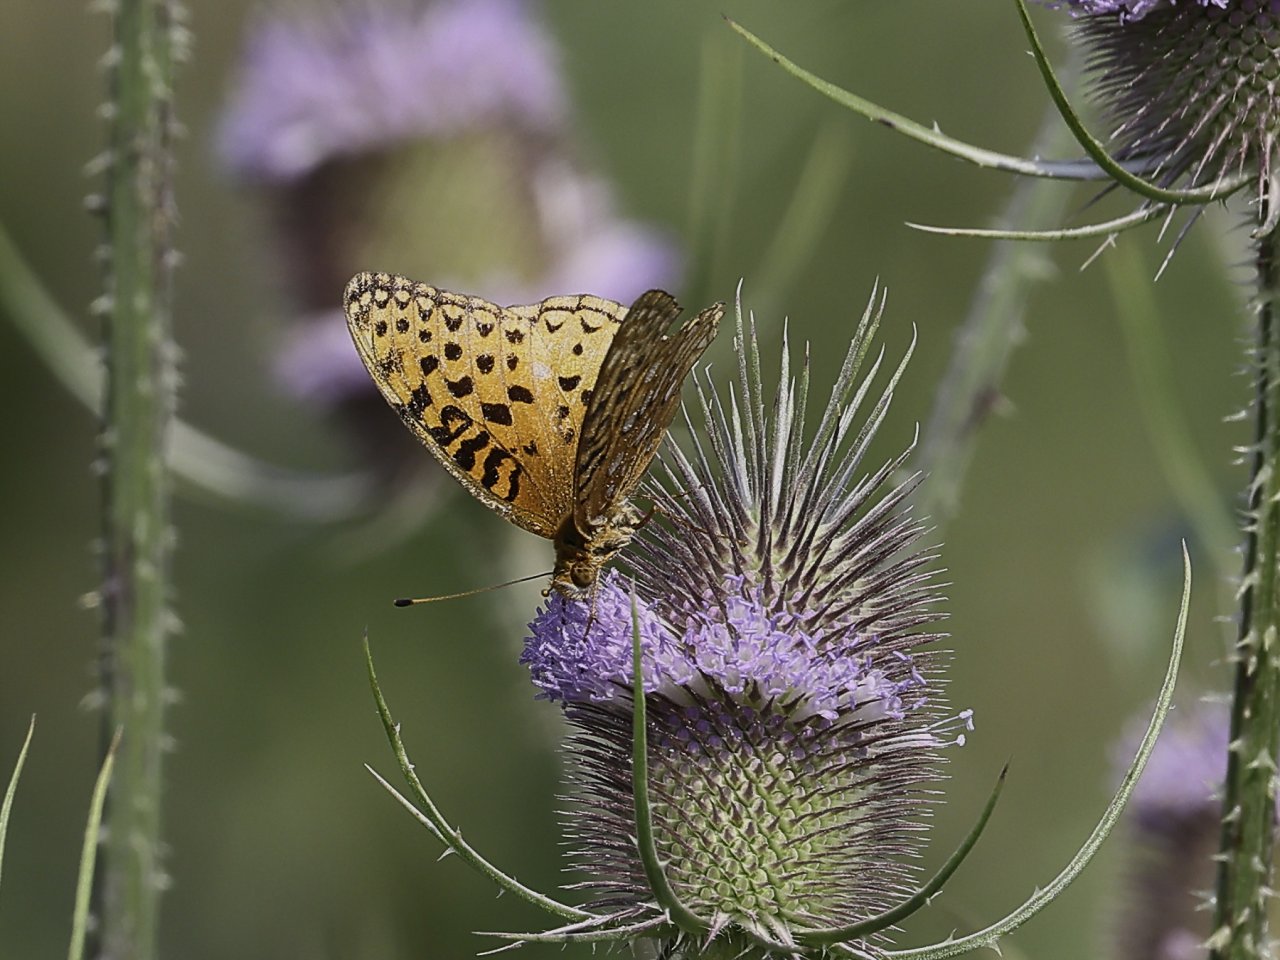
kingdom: Animalia
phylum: Arthropoda
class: Insecta
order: Lepidoptera
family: Nymphalidae
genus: Speyeria
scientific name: Speyeria aphrodite
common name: Aphrodite Fritillary
